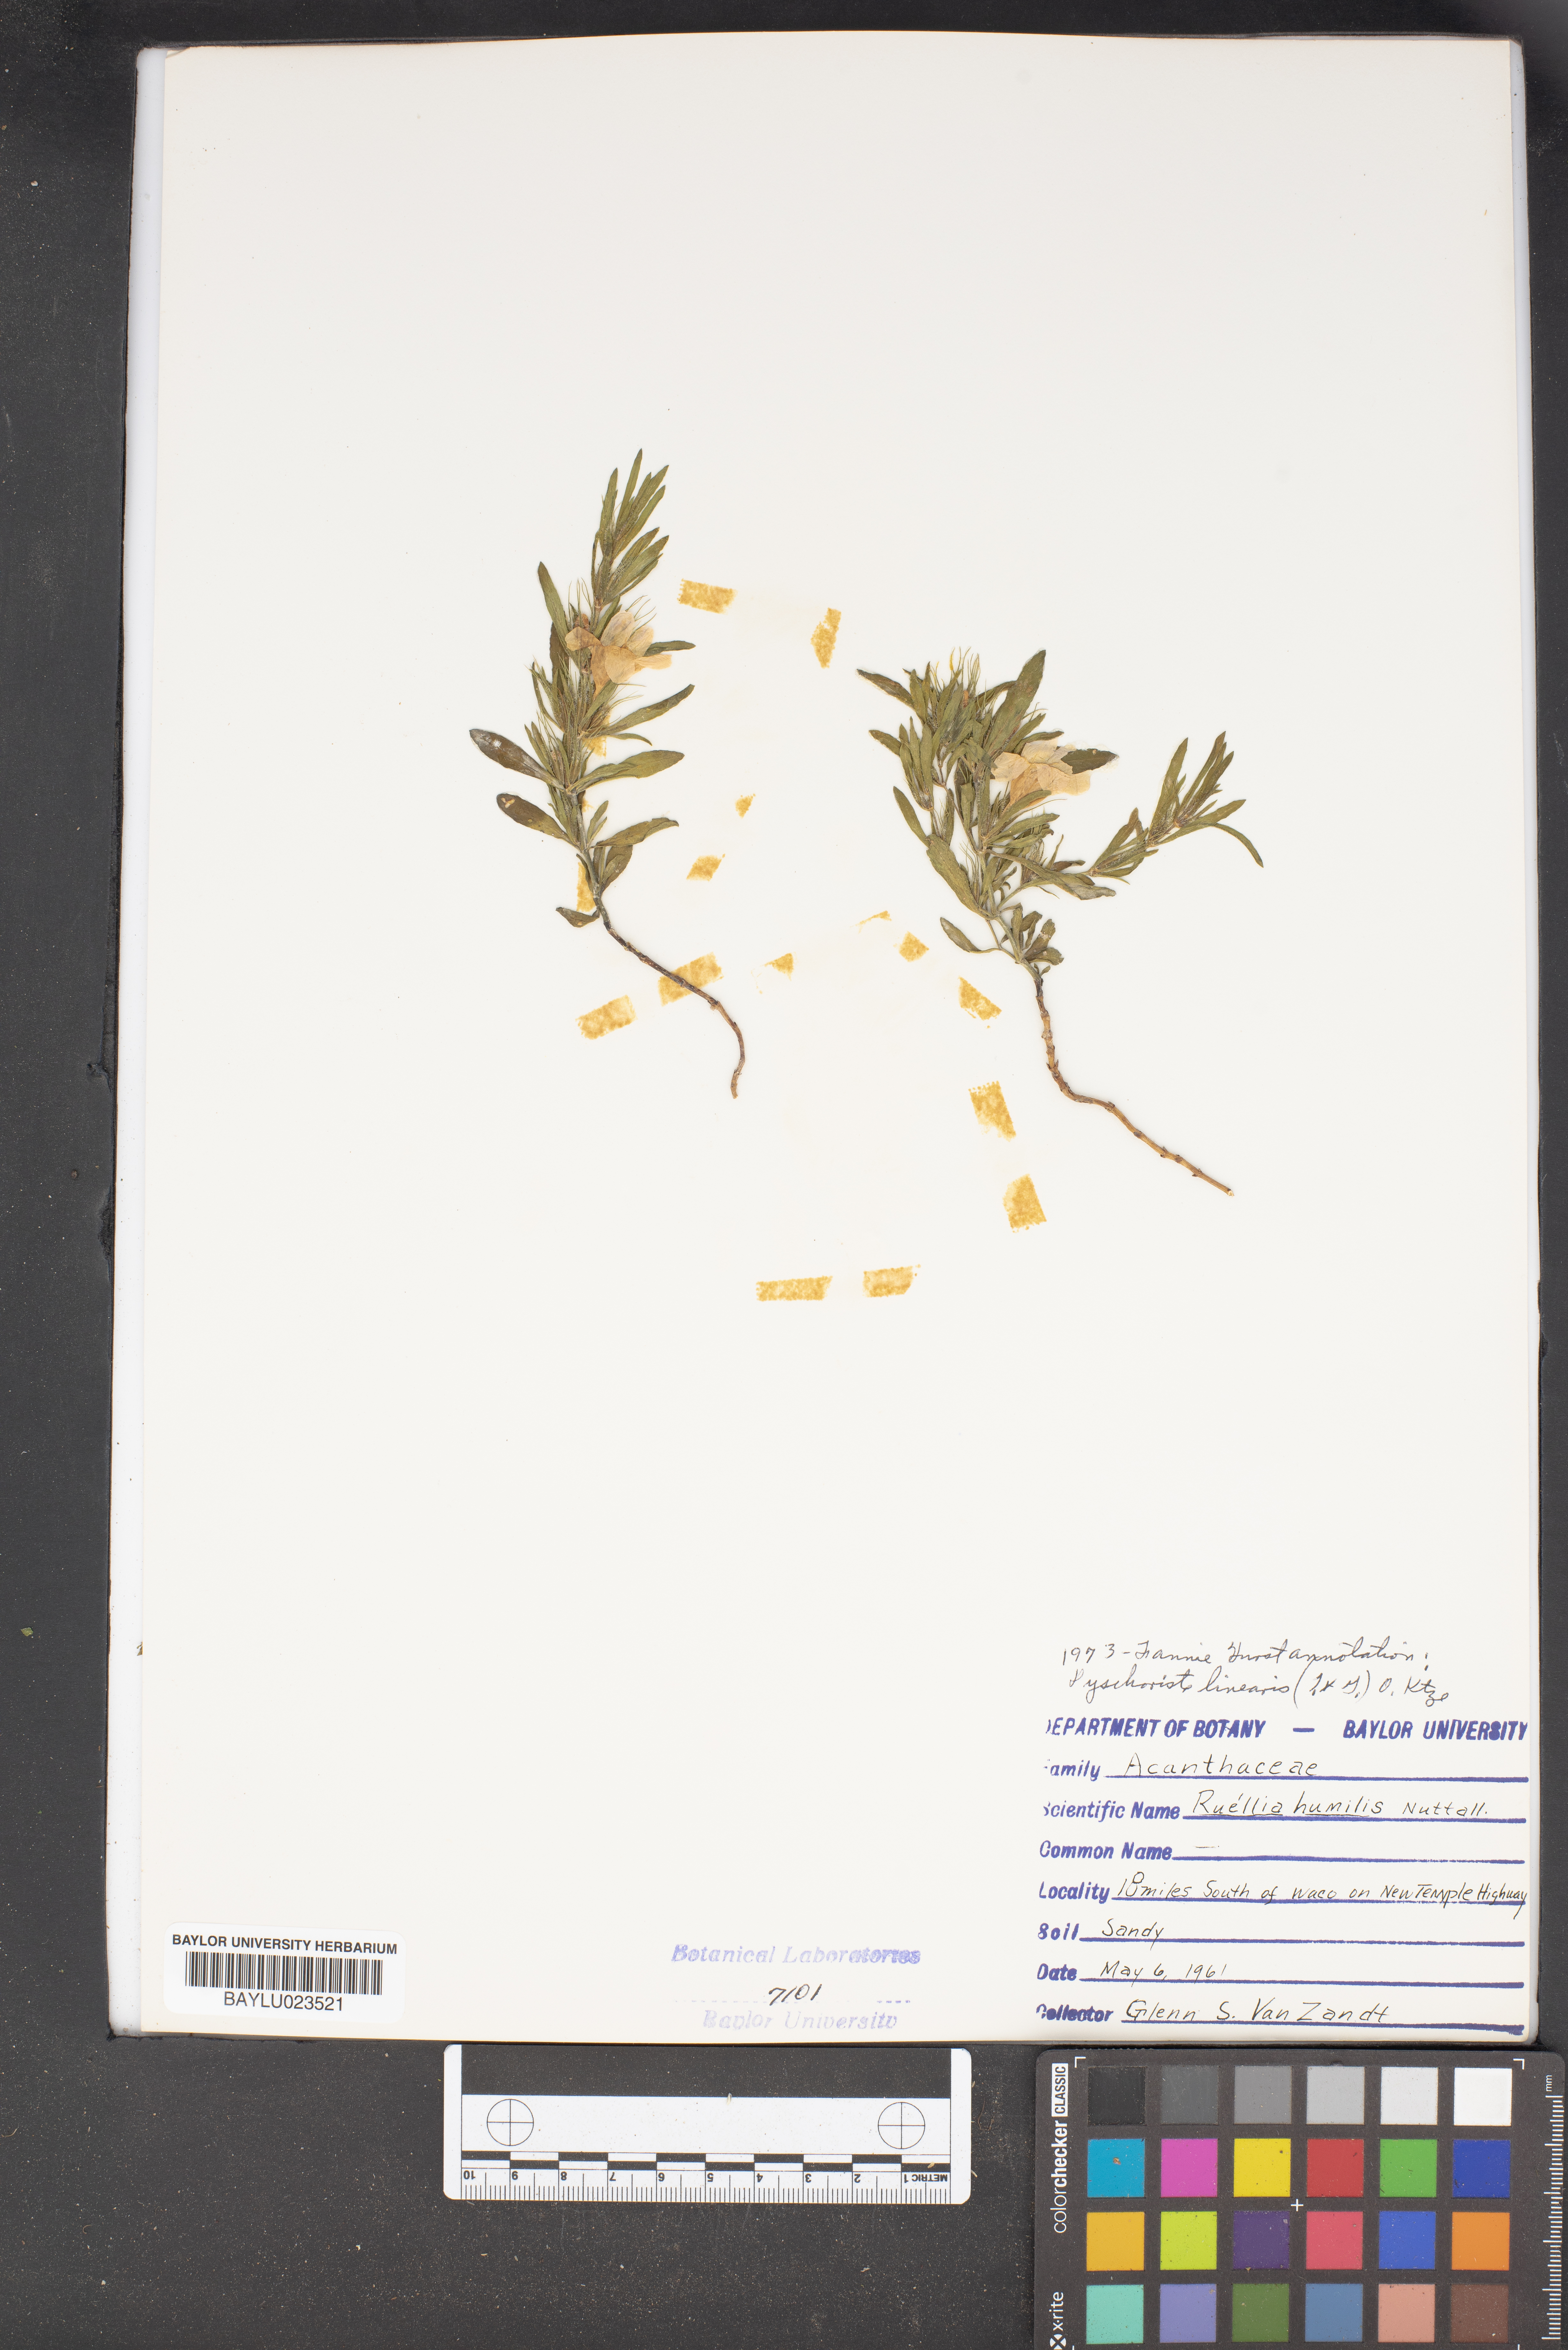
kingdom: Plantae
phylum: Tracheophyta
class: Magnoliopsida
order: Lamiales
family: Acanthaceae
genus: Ruellia
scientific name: Ruellia humilis
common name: Fringe-leaf ruellia
